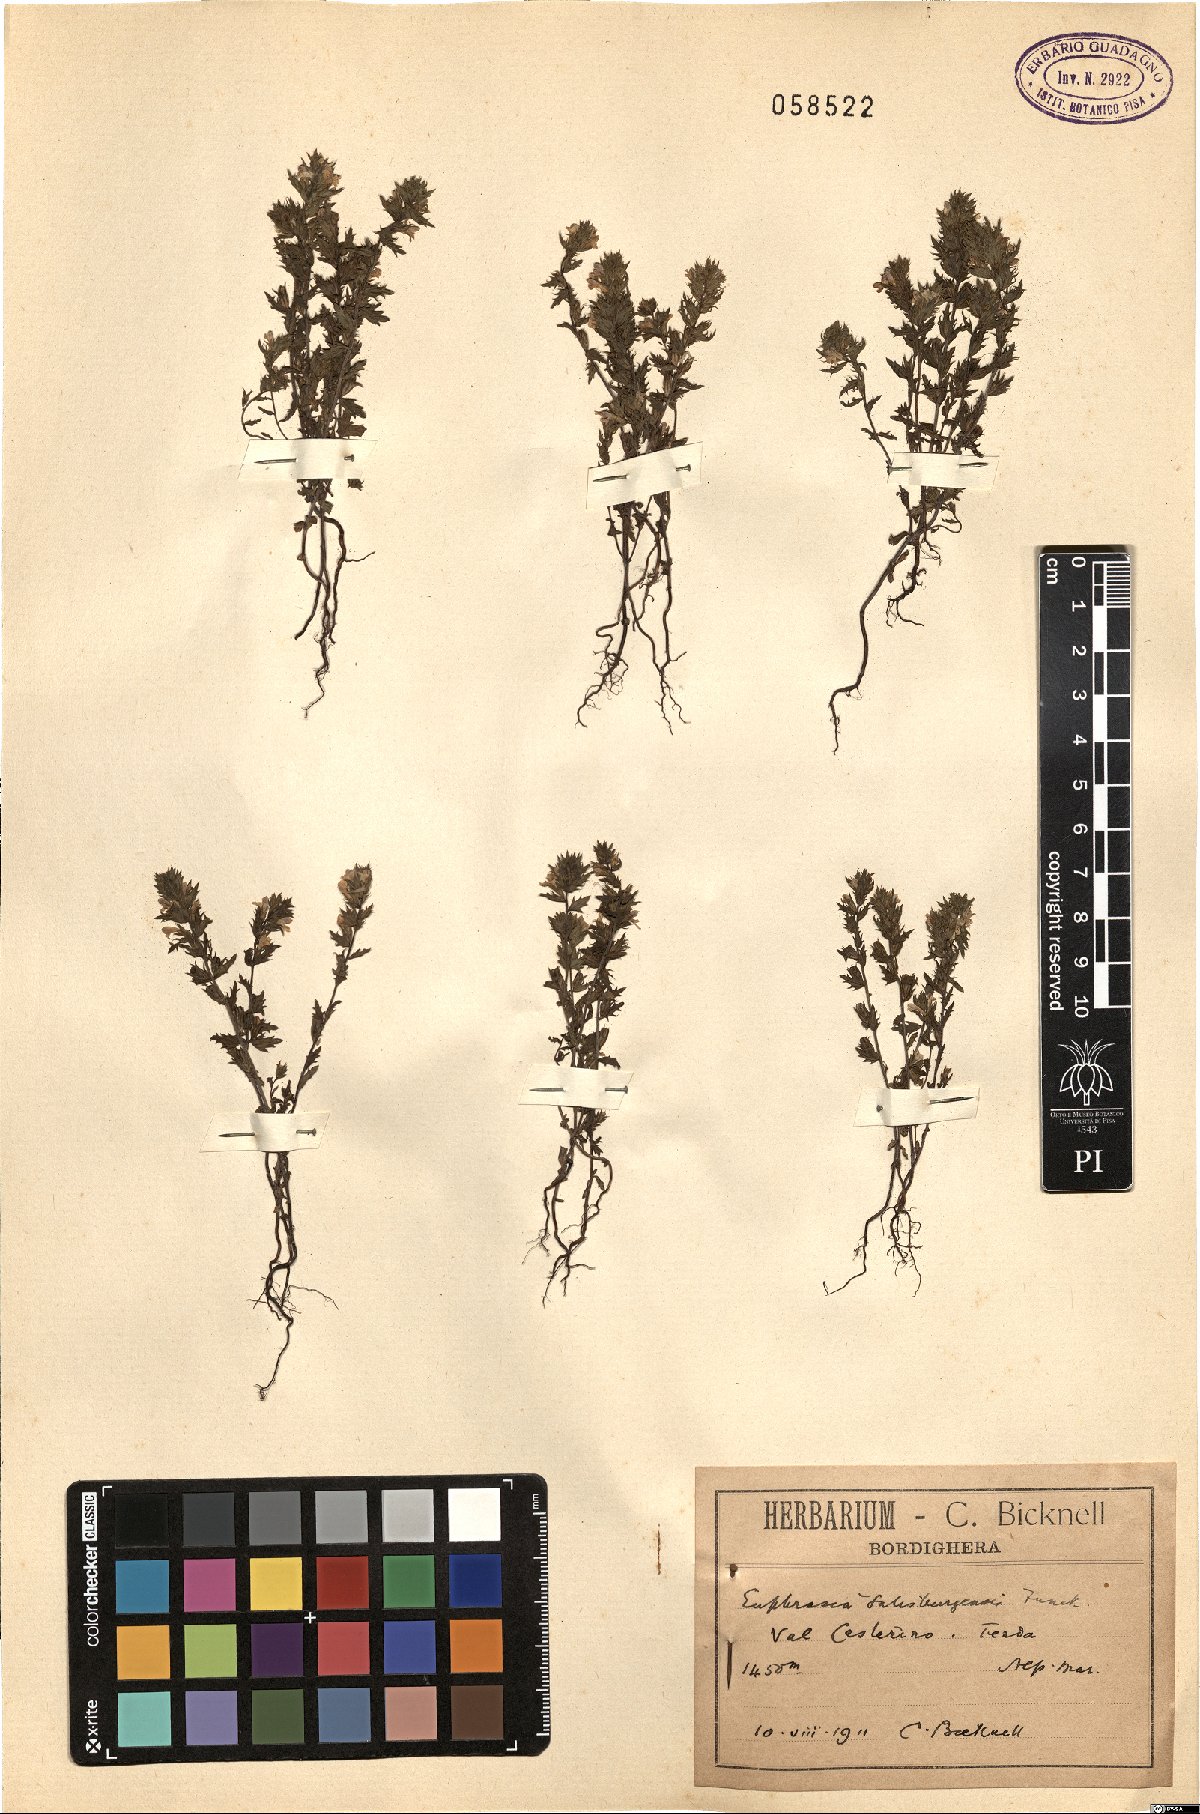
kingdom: Plantae
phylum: Tracheophyta
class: Magnoliopsida
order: Lamiales
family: Orobanchaceae
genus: Euphrasia
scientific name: Euphrasia salisburgensis
